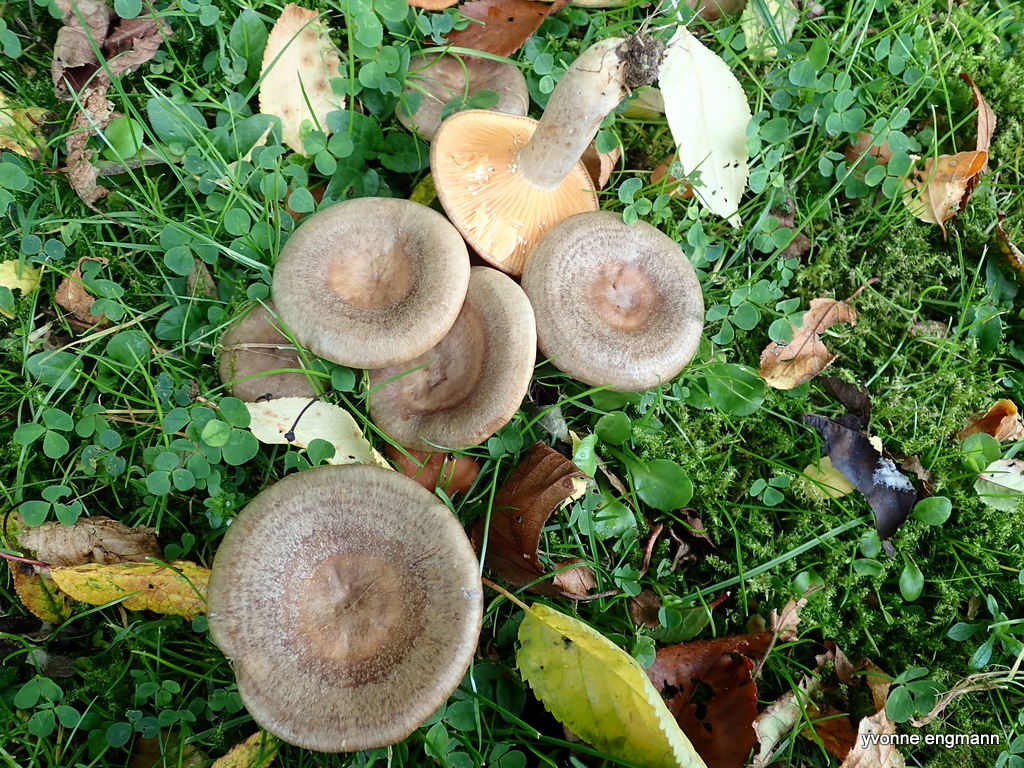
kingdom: Fungi
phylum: Basidiomycota
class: Agaricomycetes
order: Russulales
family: Russulaceae
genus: Lactarius
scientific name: Lactarius pyrogalus
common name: hassel-mælkehat
